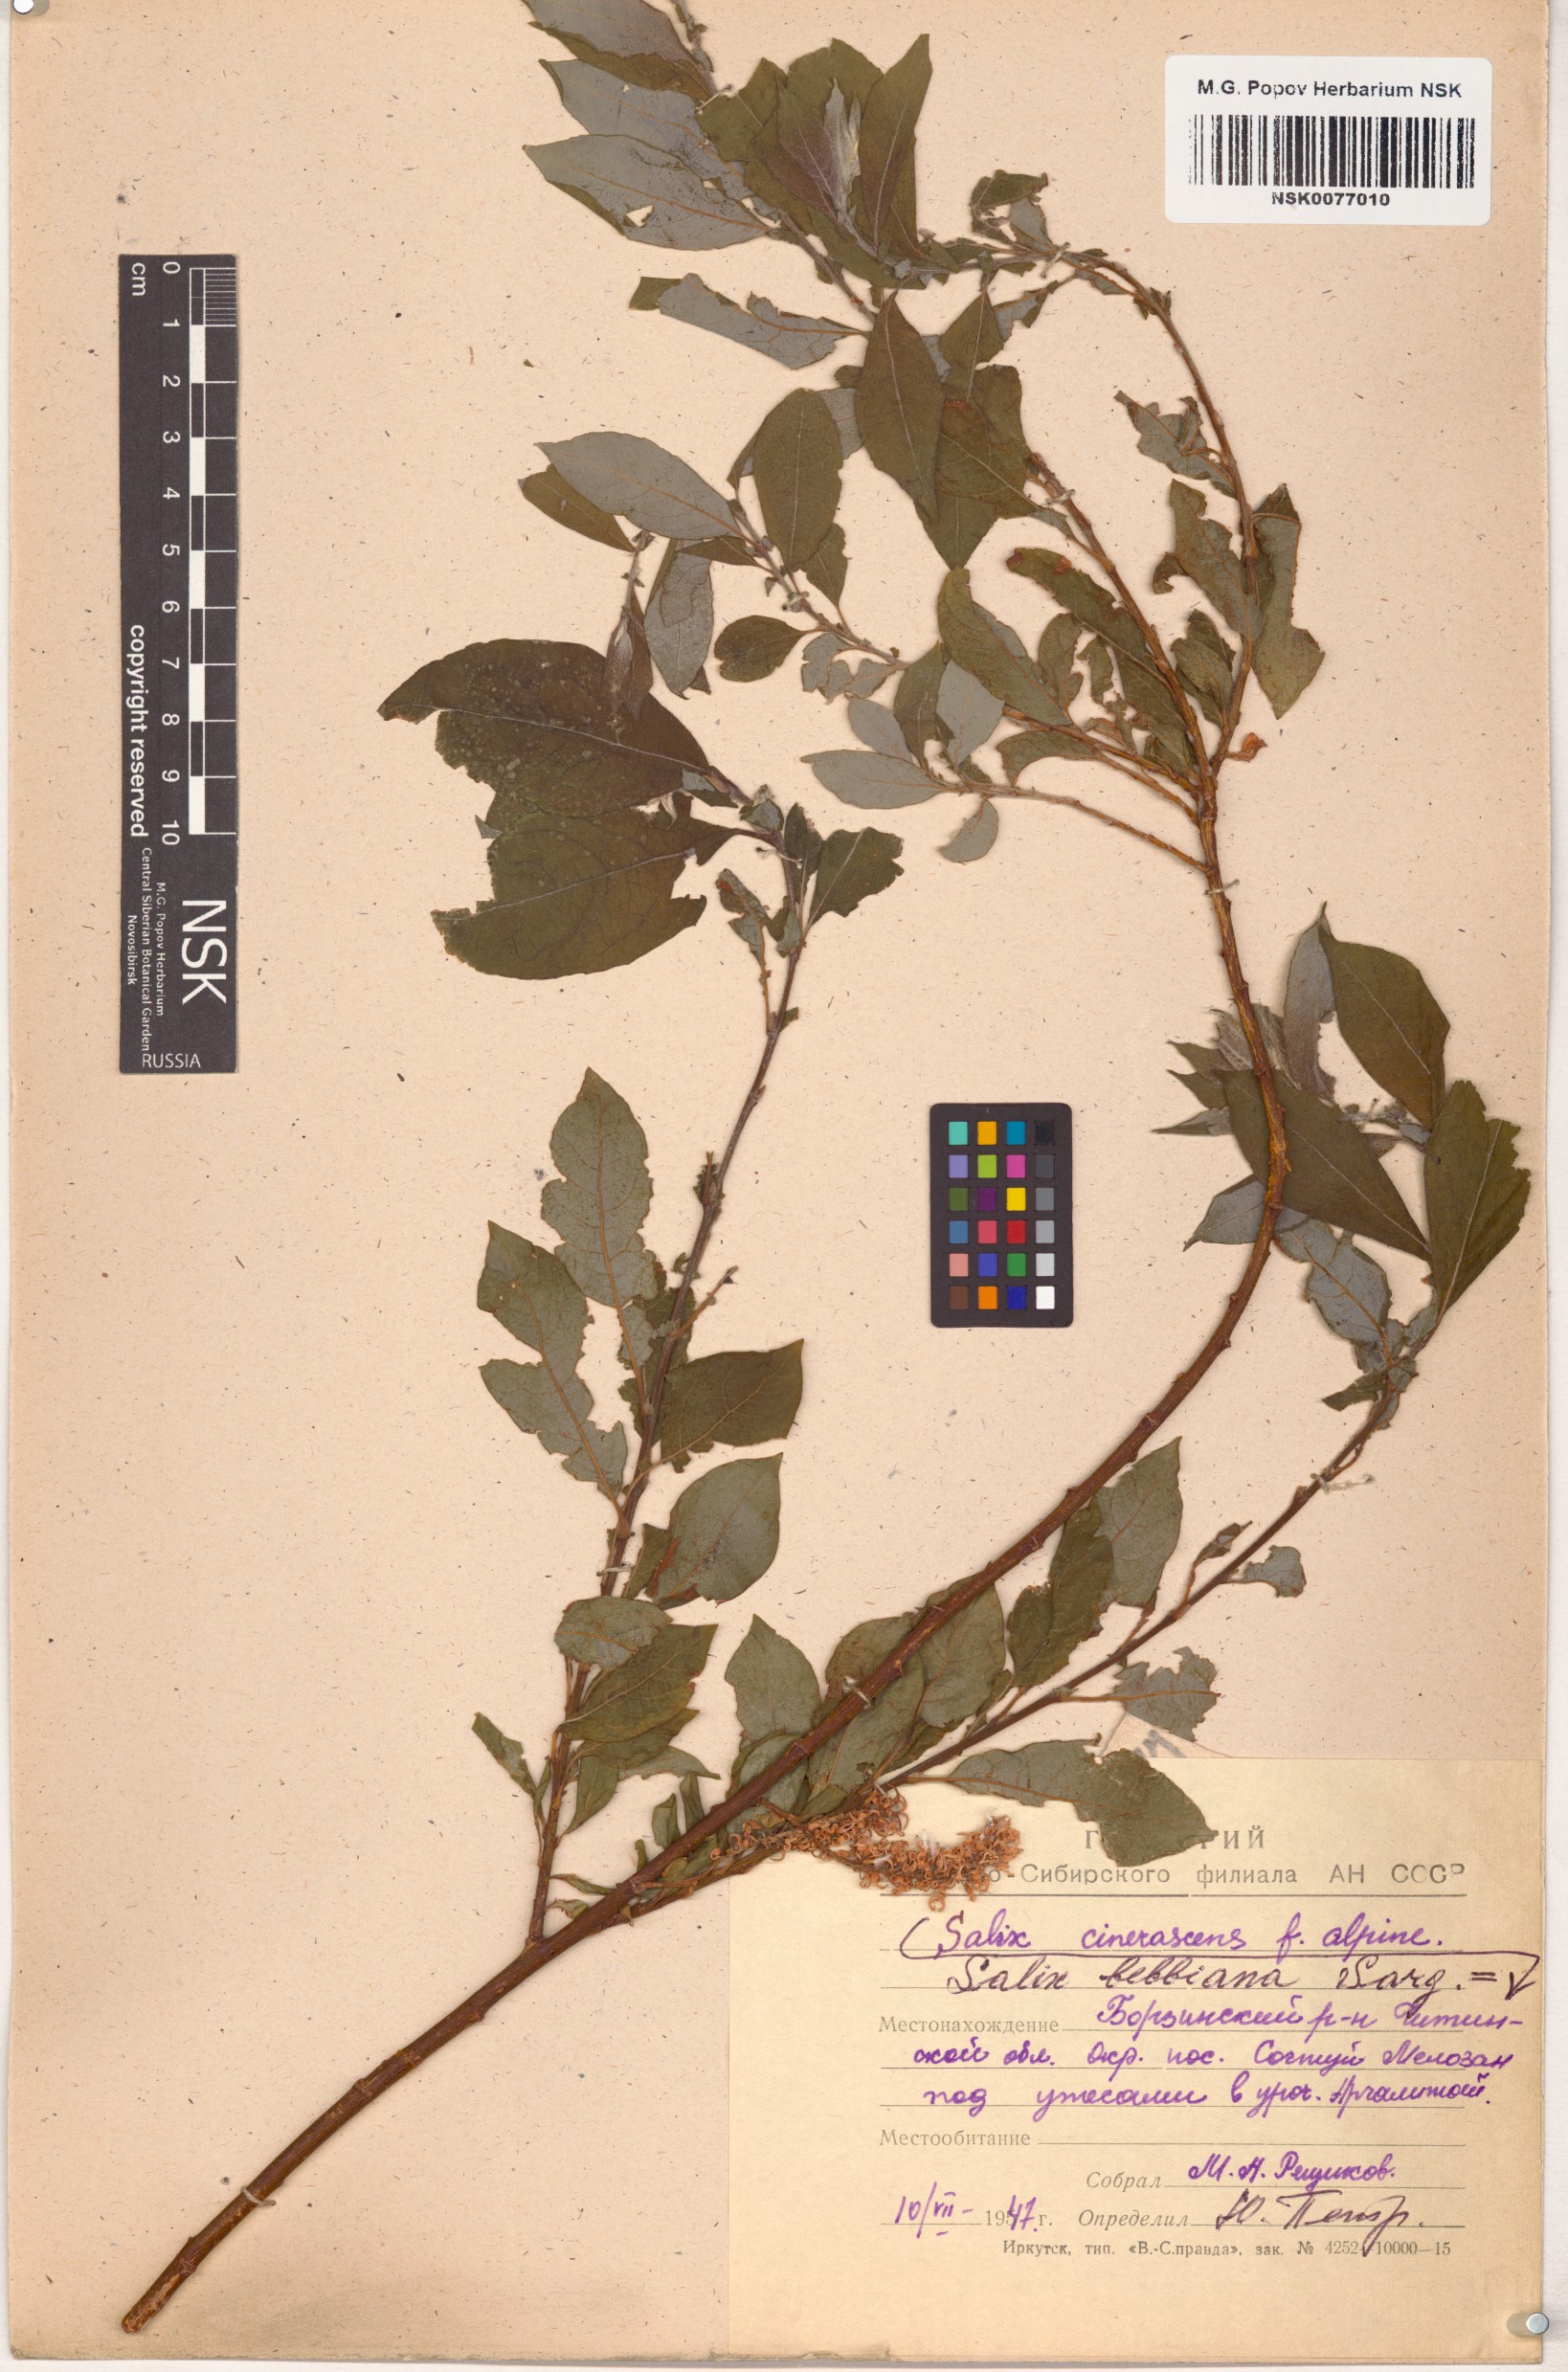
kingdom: Plantae
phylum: Tracheophyta
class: Magnoliopsida
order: Malpighiales
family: Salicaceae
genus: Salix
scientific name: Salix bebbiana
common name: Bebb's willow
